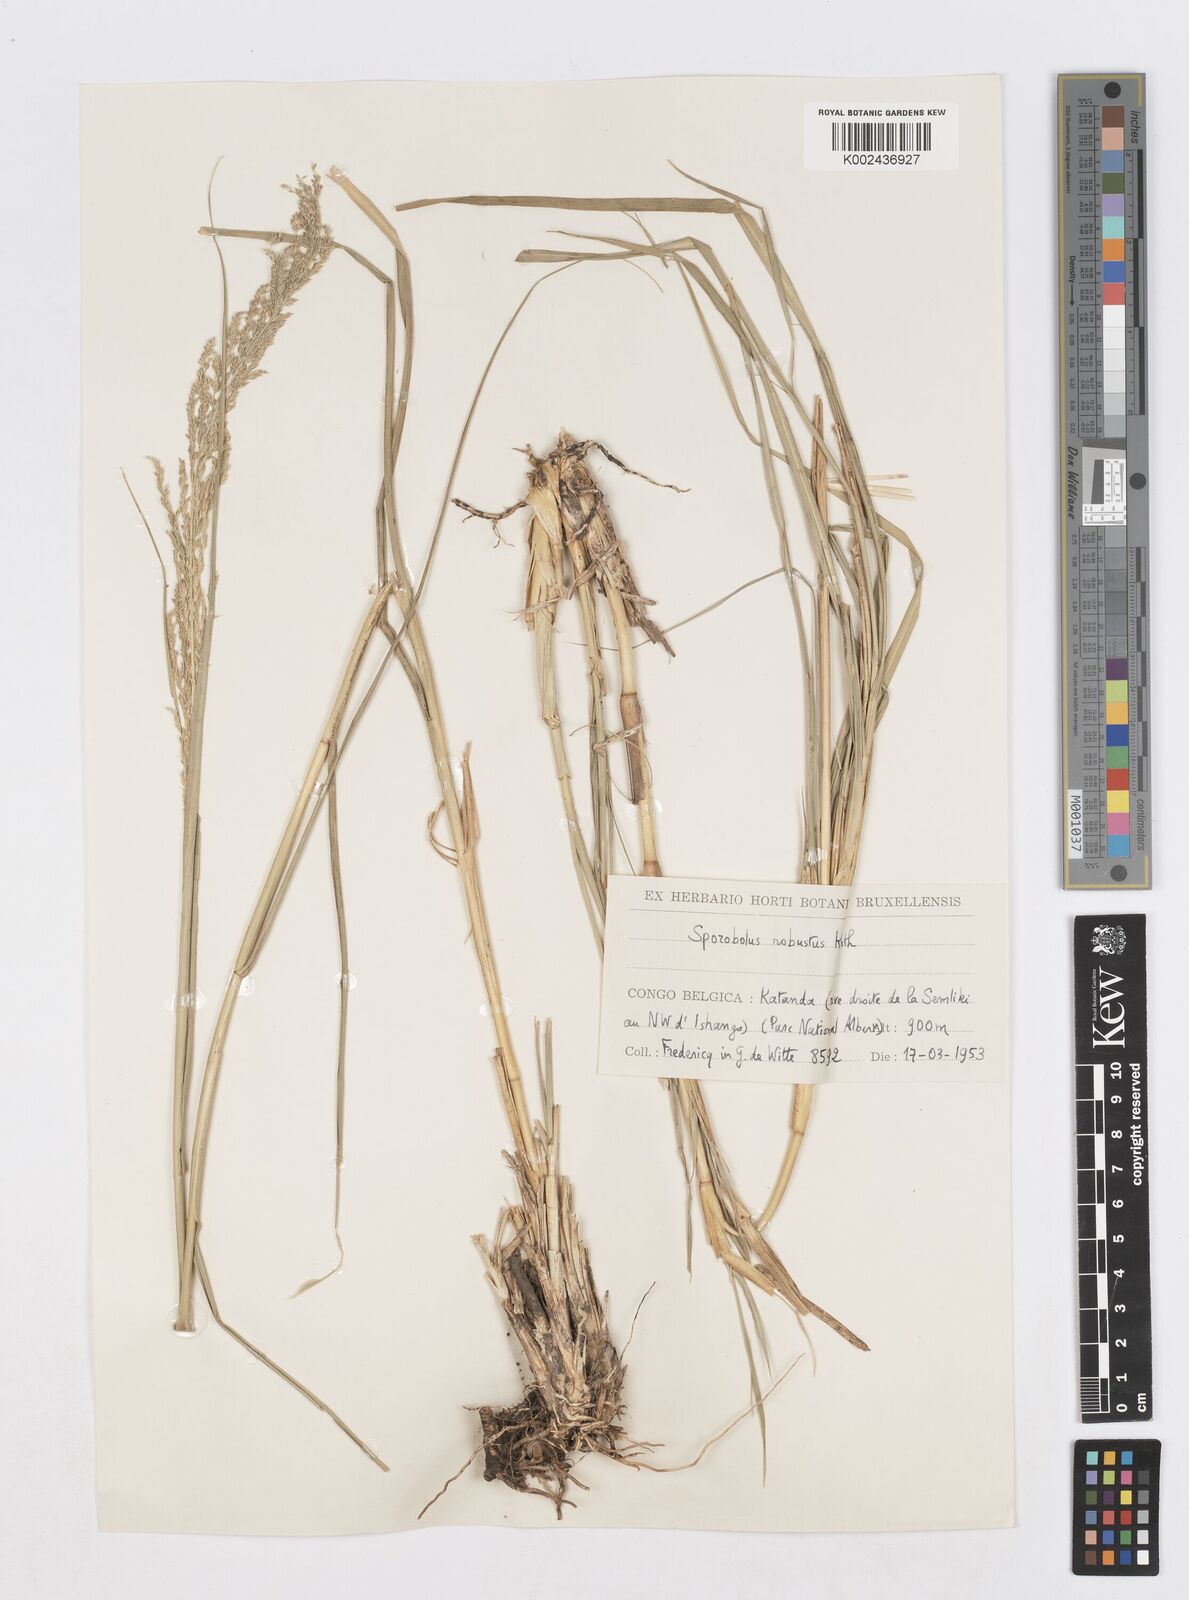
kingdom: Plantae
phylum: Tracheophyta
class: Liliopsida
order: Poales
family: Poaceae
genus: Sporobolus
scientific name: Sporobolus consimilis
